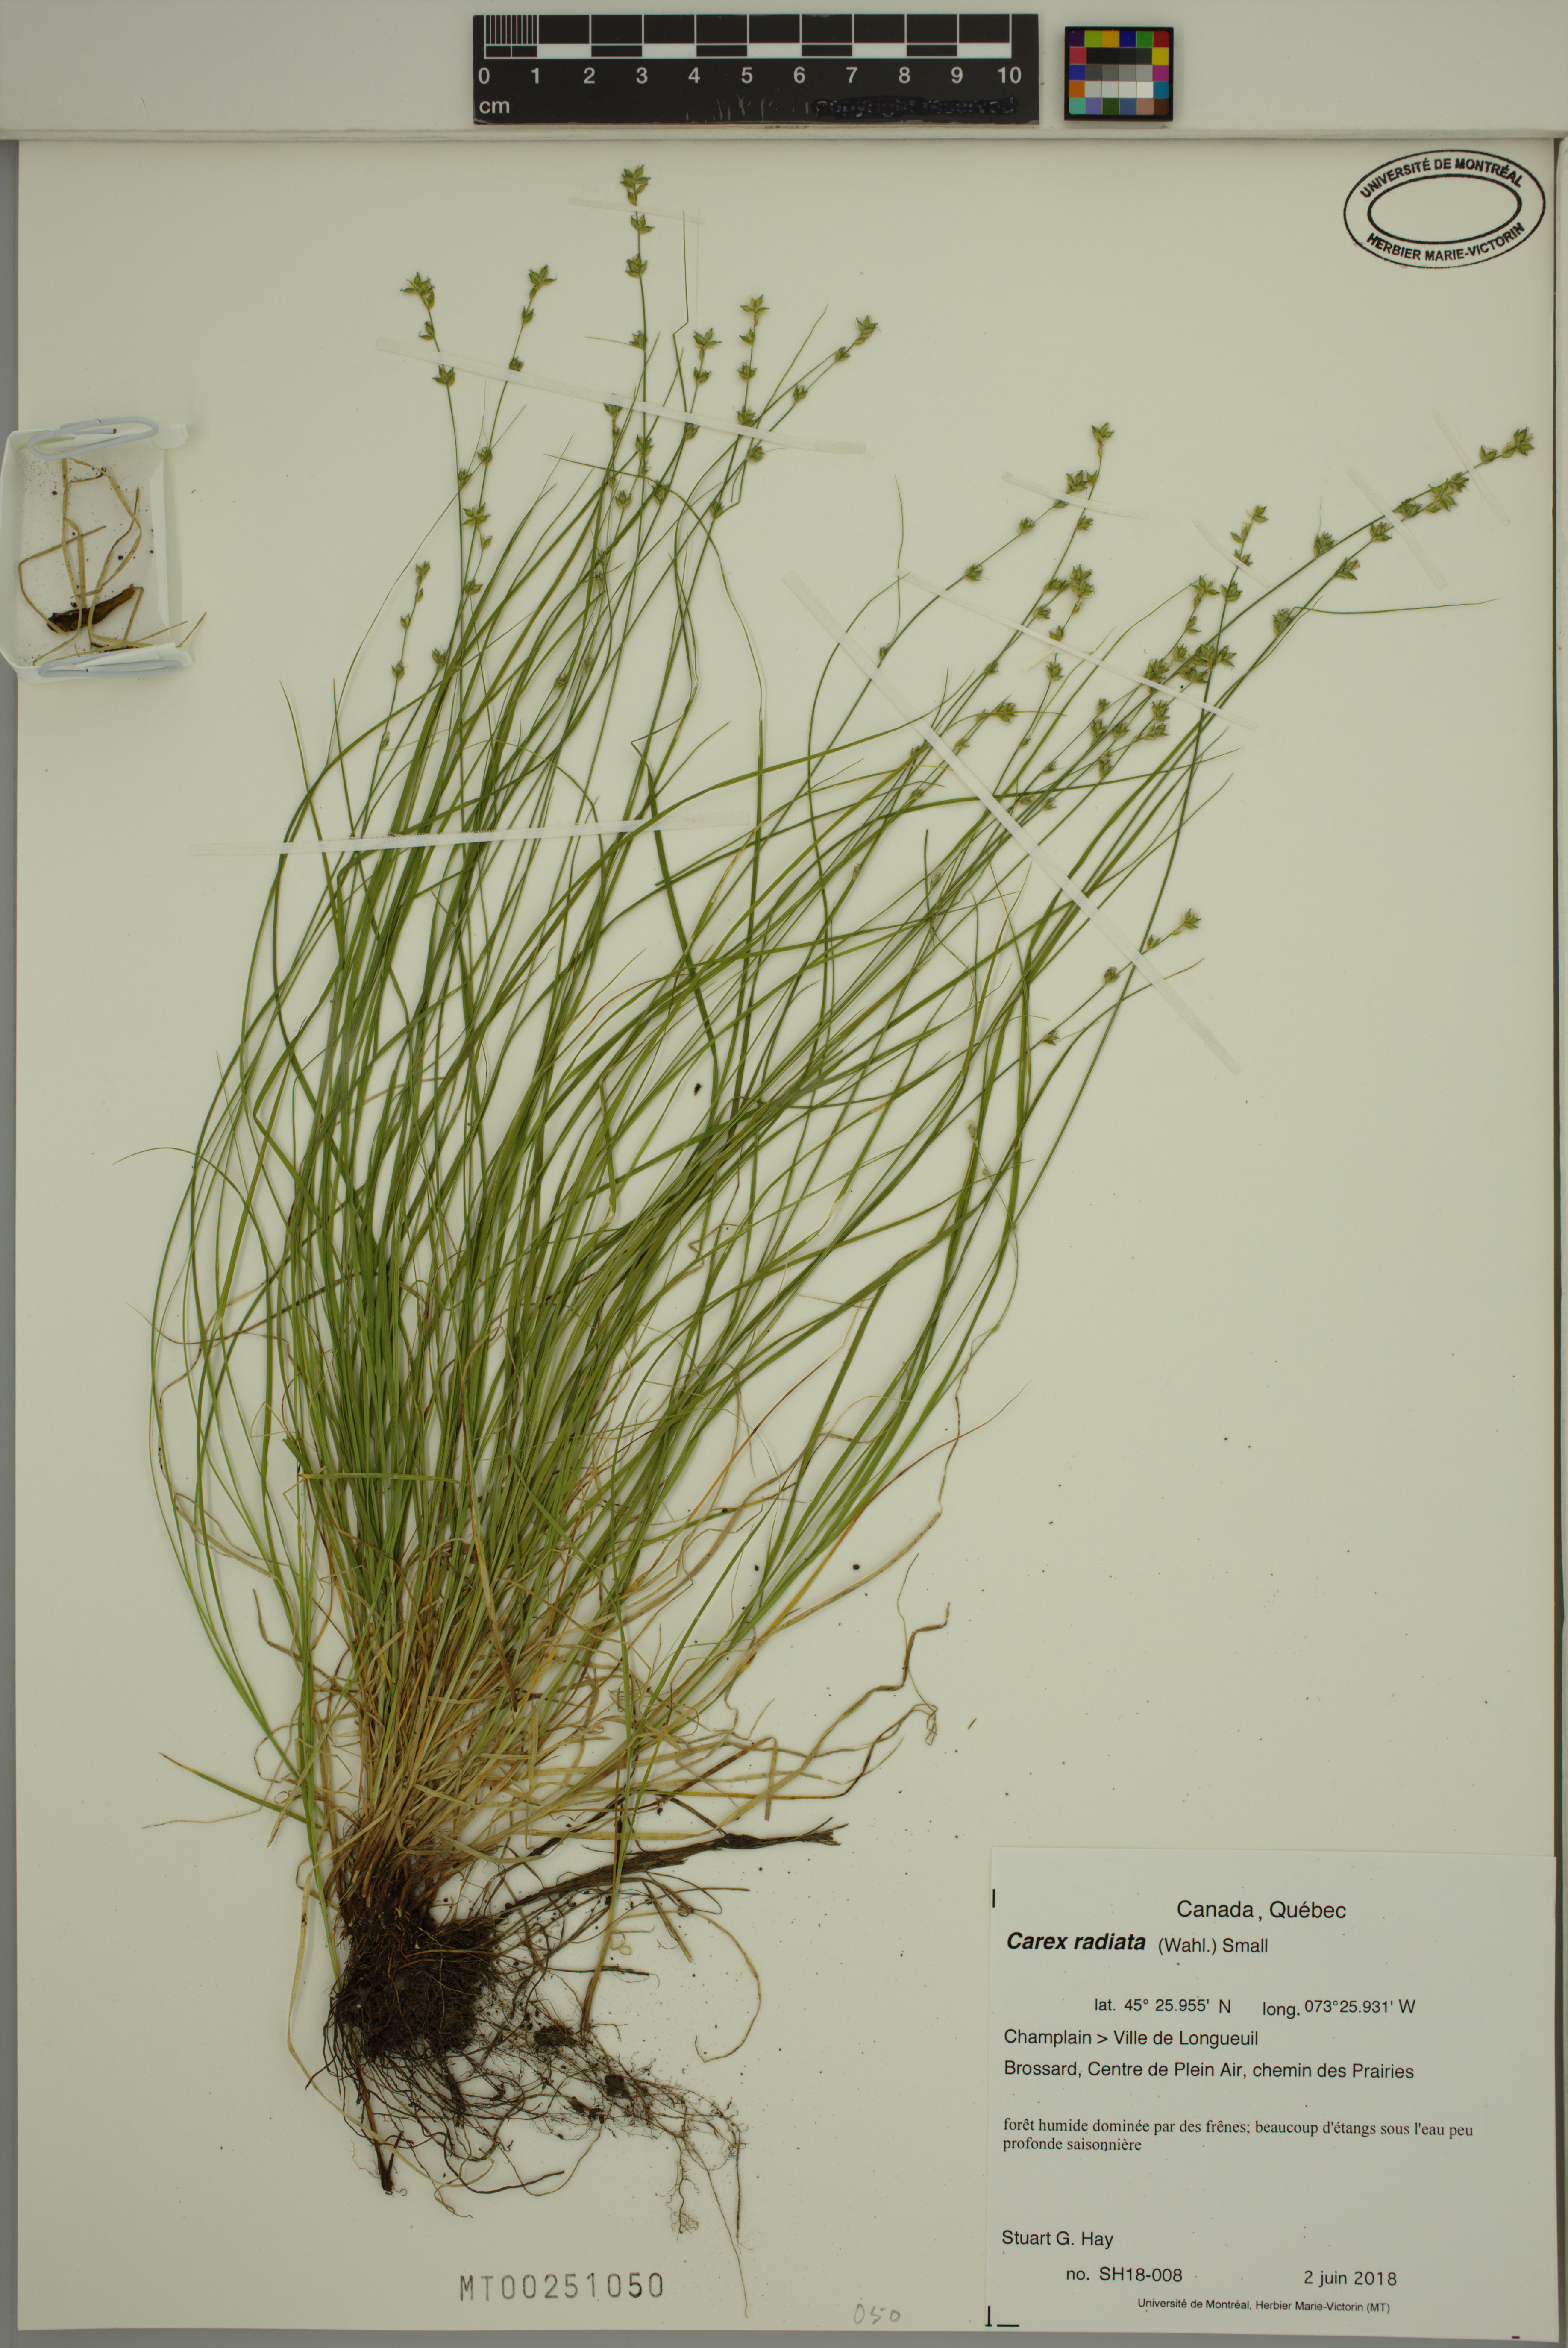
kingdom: Plantae
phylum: Tracheophyta
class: Liliopsida
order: Poales
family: Cyperaceae
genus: Carex
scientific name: Carex radiata
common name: Eastern star sedge
